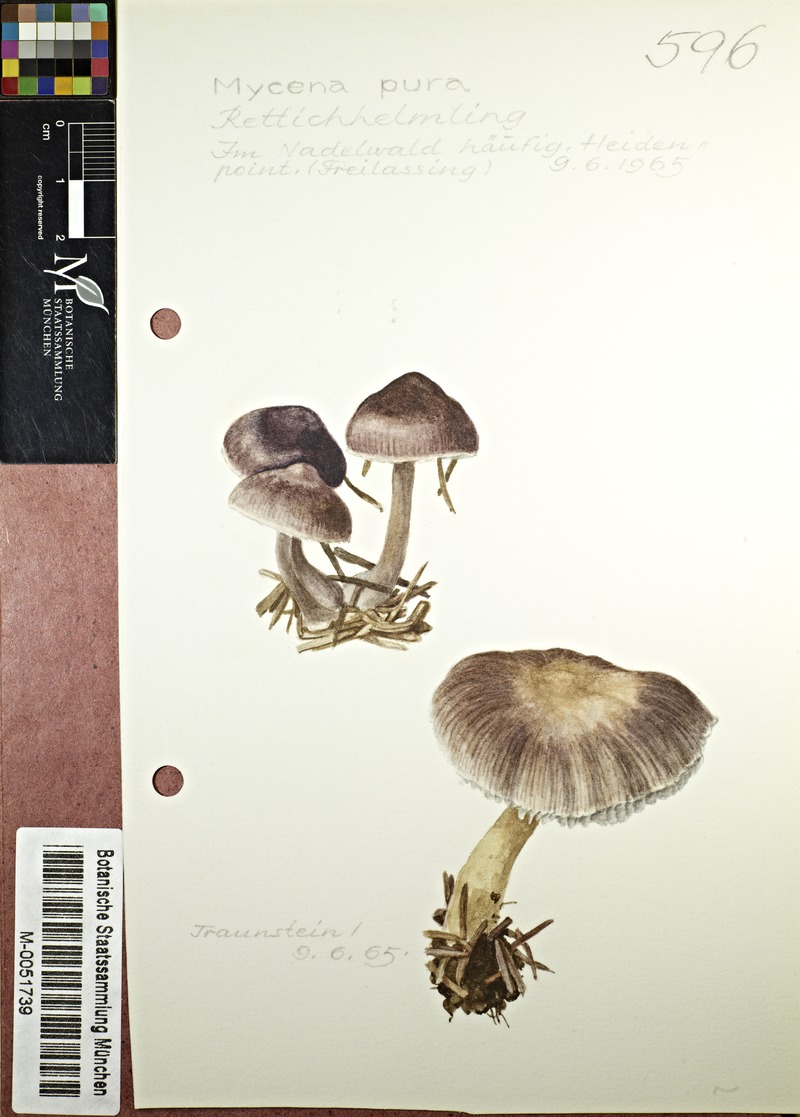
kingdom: Fungi
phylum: Basidiomycota
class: Agaricomycetes
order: Agaricales
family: Mycenaceae
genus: Mycena
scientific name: Mycena pura
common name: Lilac bonnet
